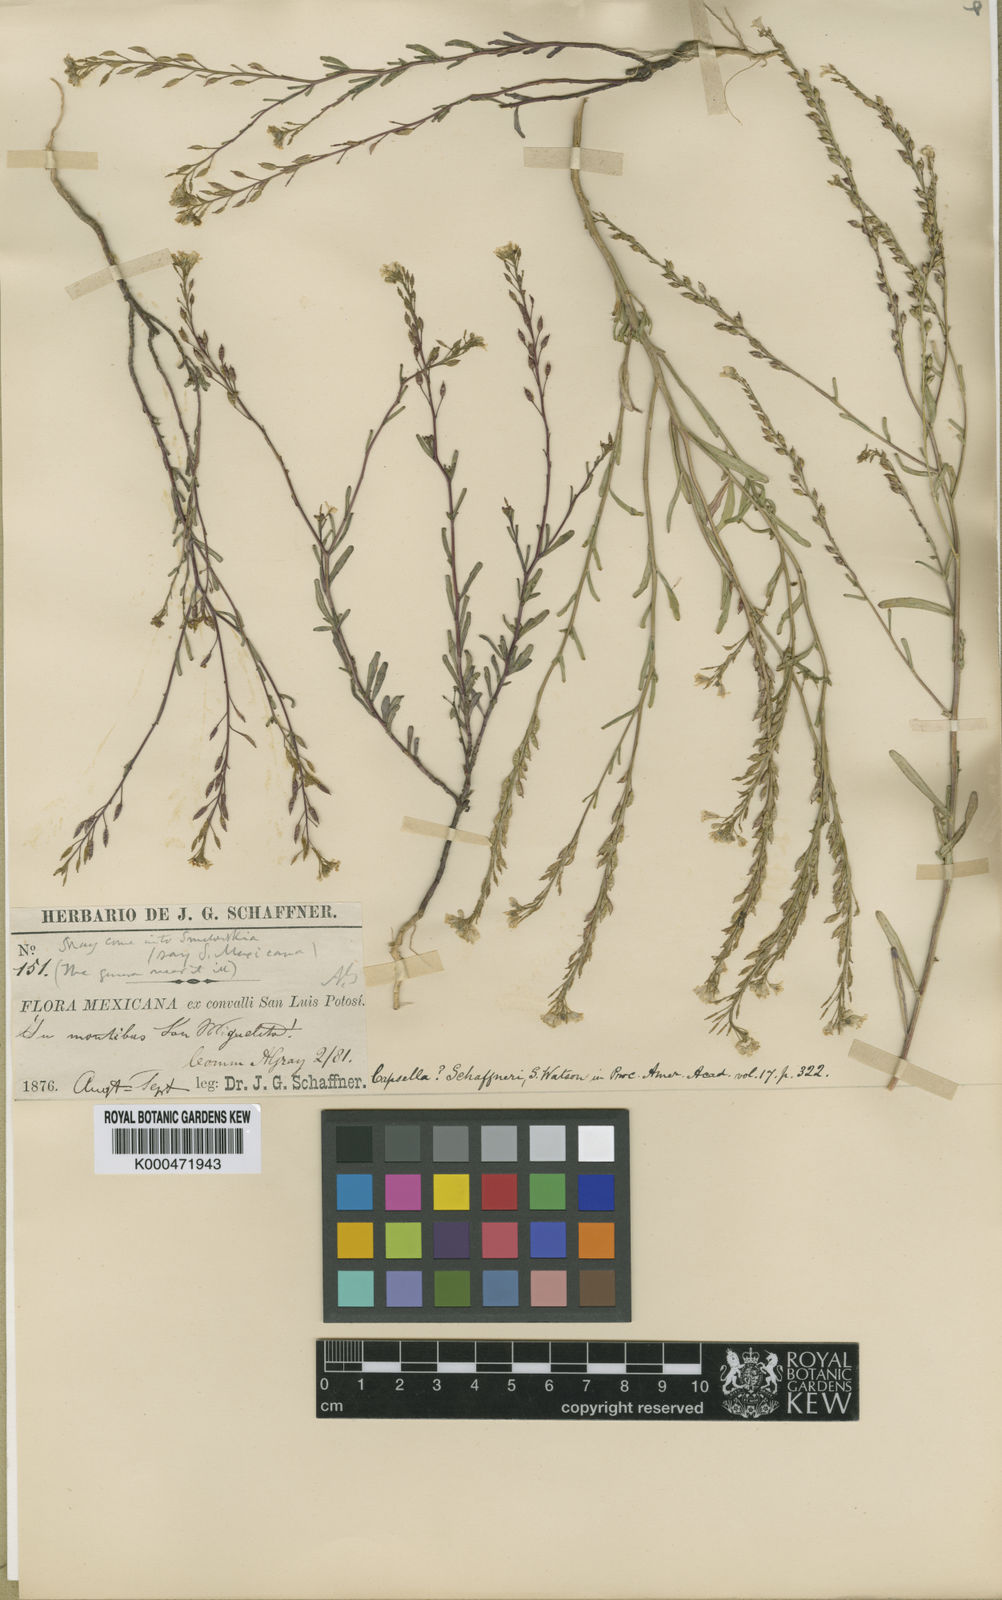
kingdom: Plantae
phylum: Tracheophyta
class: Magnoliopsida
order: Brassicales
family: Brassicaceae
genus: Asta
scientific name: Asta schaffneri
